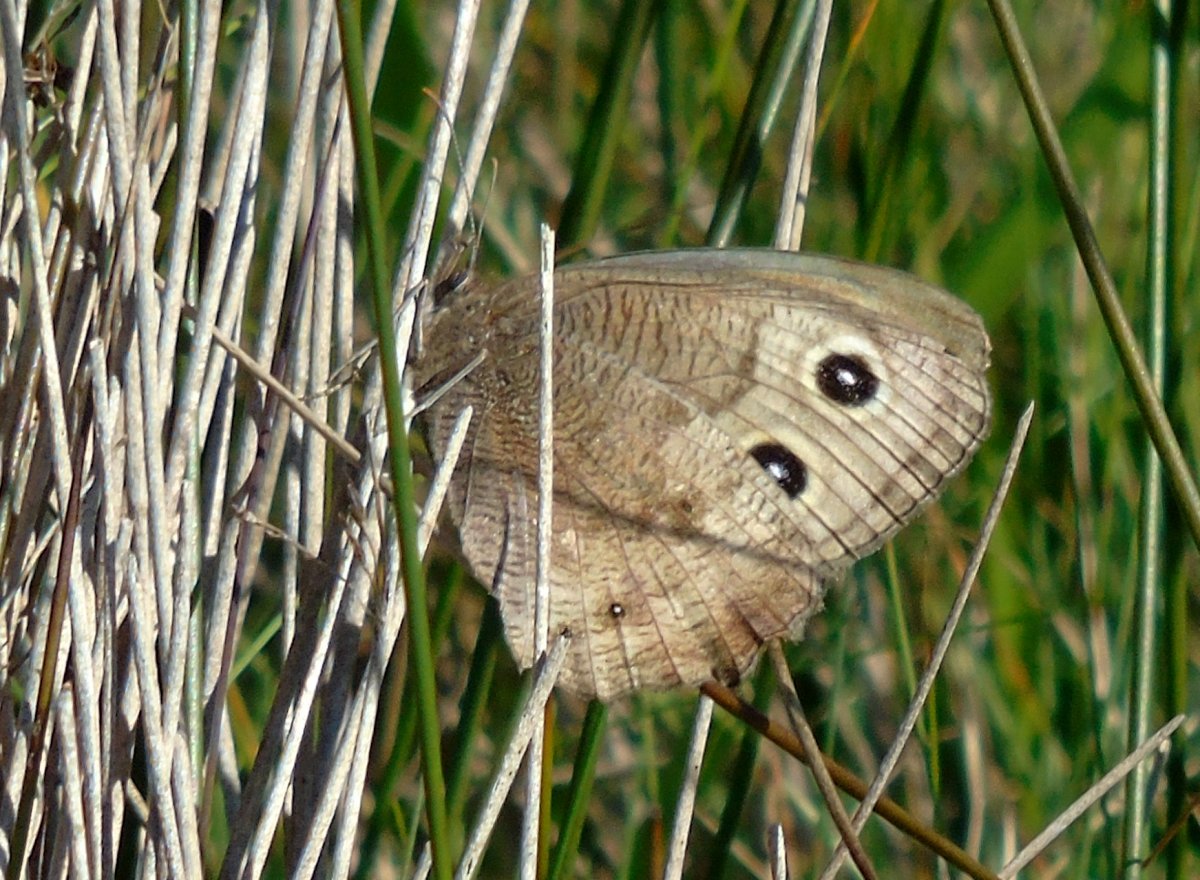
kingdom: Animalia
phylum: Arthropoda
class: Insecta
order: Lepidoptera
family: Nymphalidae
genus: Cercyonis
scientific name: Cercyonis pegala
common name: Common Wood-Nymph
